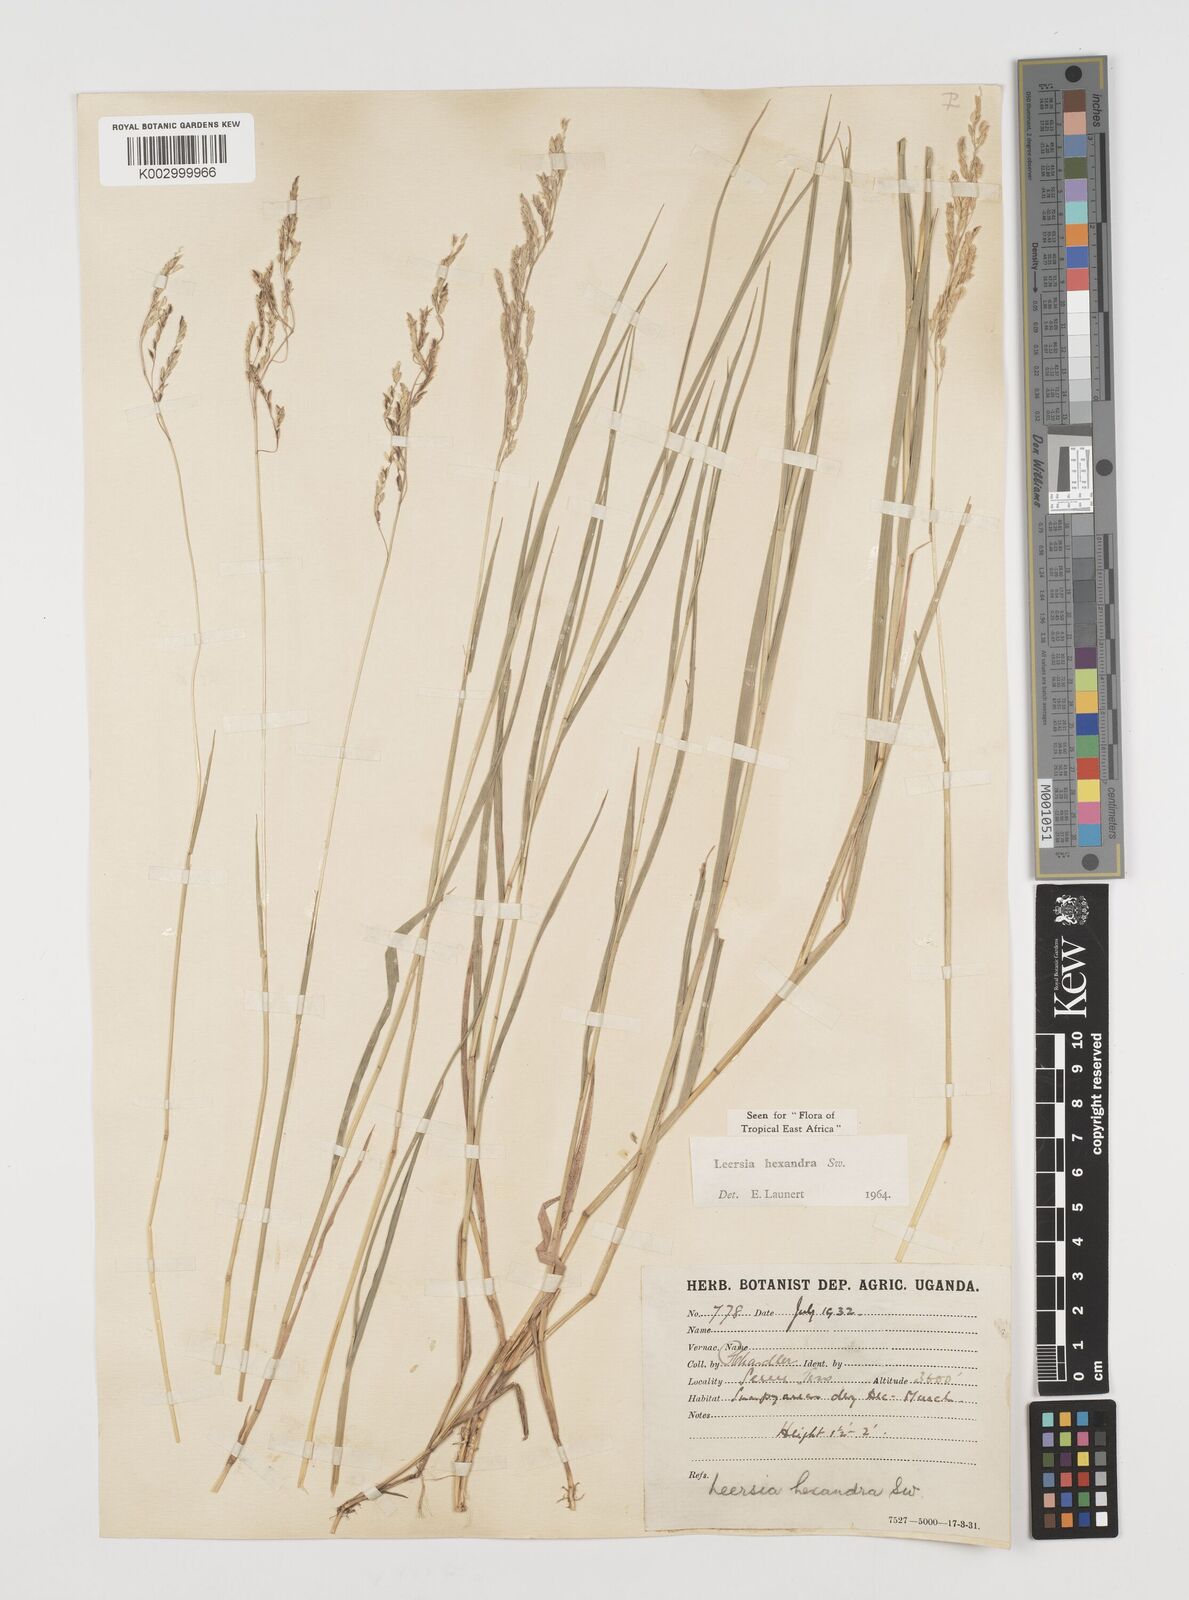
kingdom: Plantae
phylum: Tracheophyta
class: Liliopsida
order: Poales
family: Poaceae
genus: Leersia
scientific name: Leersia hexandra
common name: Southern cut grass
